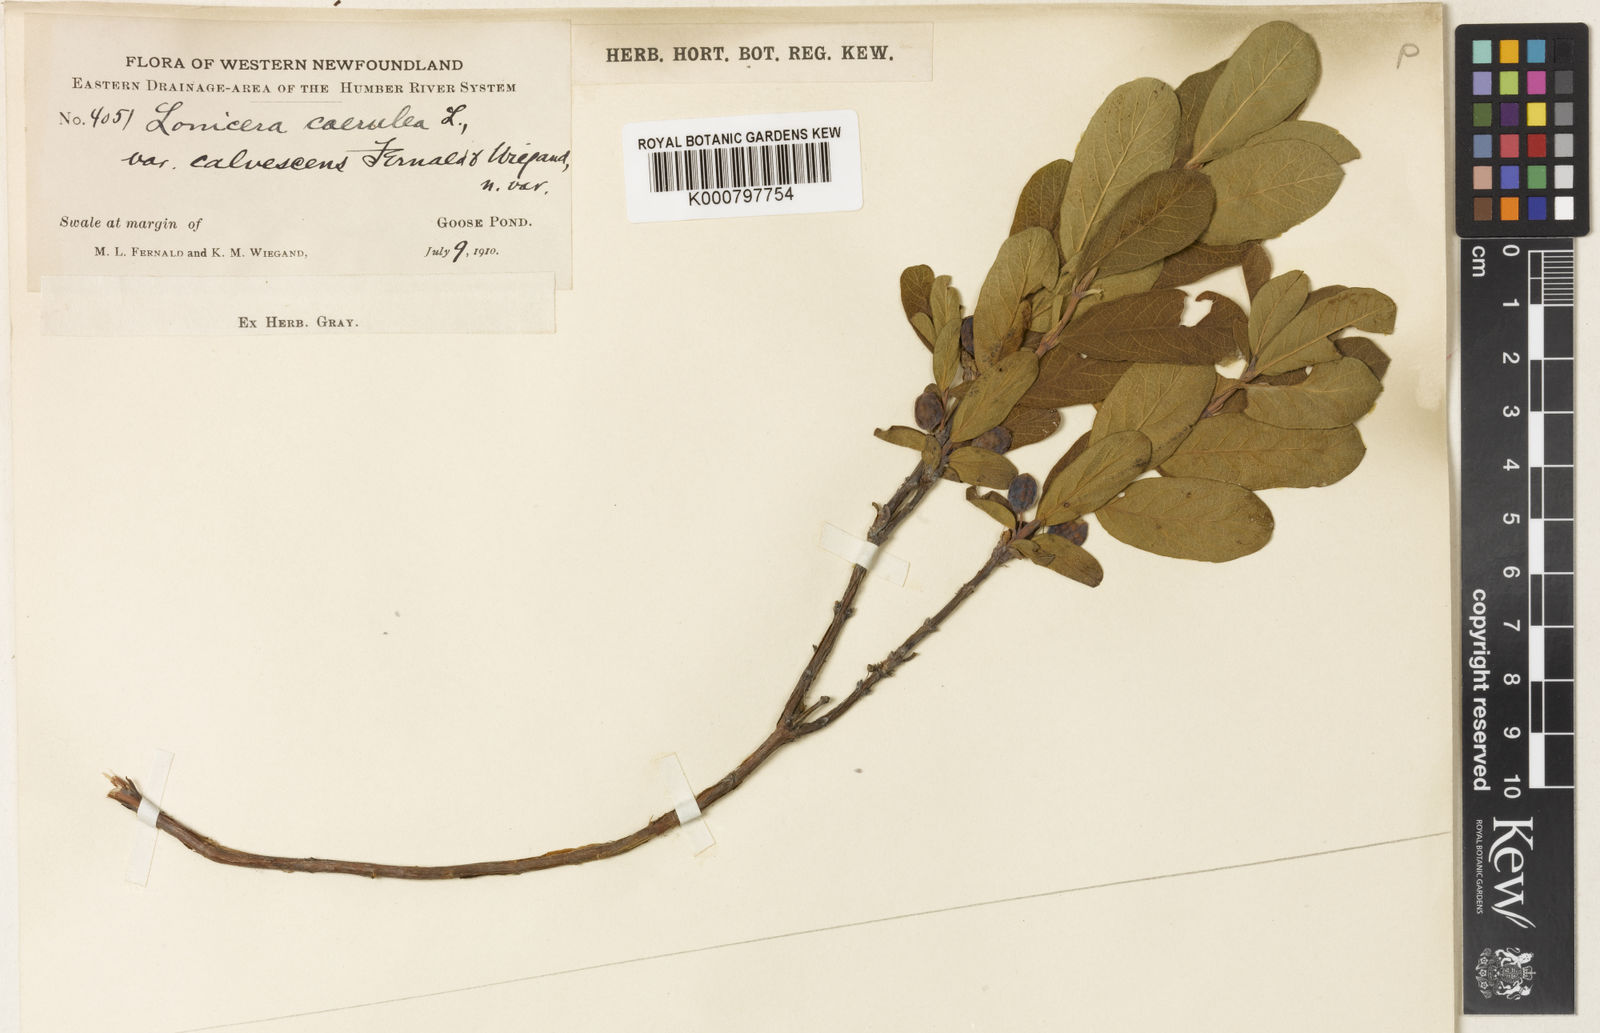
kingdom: Plantae
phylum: Tracheophyta
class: Magnoliopsida
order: Dipsacales
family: Caprifoliaceae
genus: Lonicera
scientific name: Lonicera villosa
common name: Mountain fly-honeysuckle
